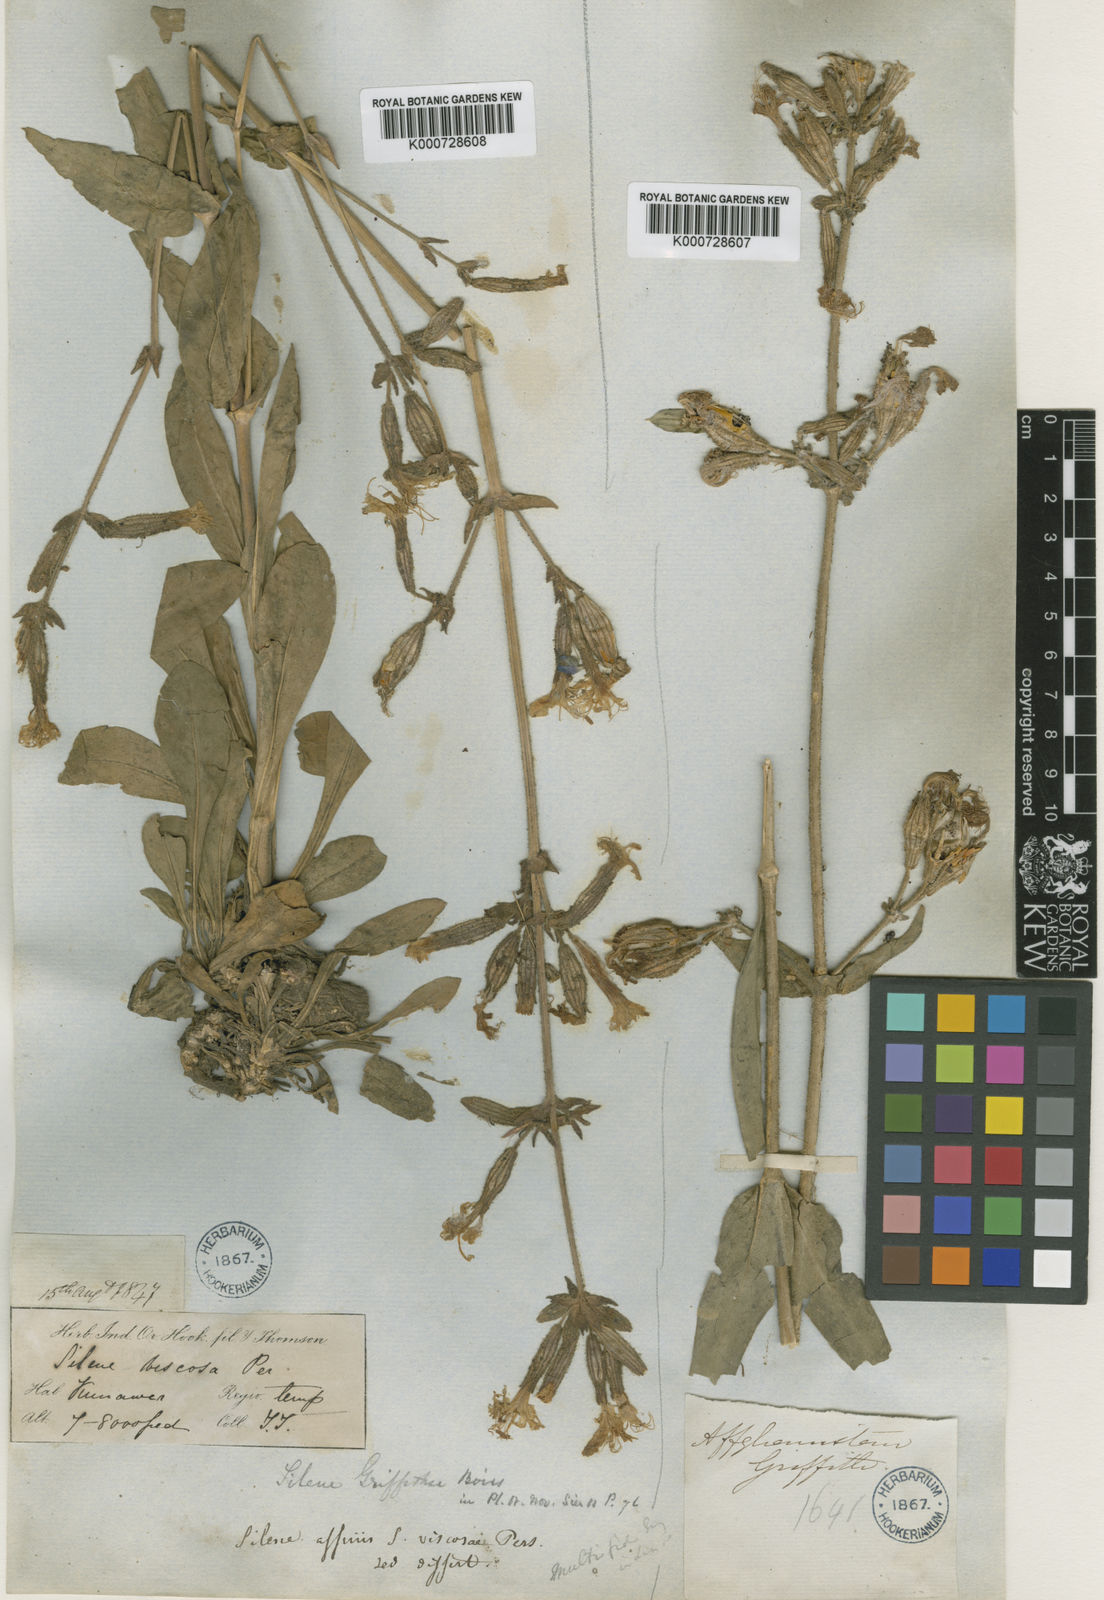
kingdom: Plantae
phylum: Tracheophyta
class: Magnoliopsida
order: Caryophyllales
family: Caryophyllaceae
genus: Silene
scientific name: Silene viscosa
